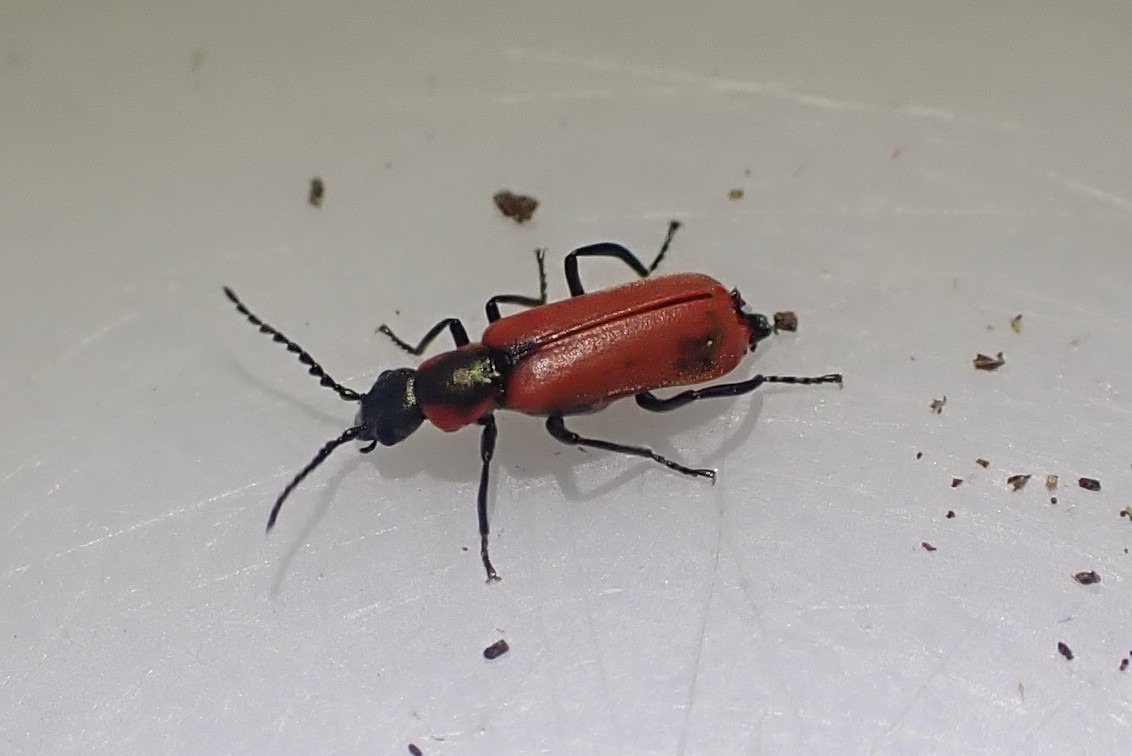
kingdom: Animalia
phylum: Arthropoda
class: Insecta
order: Coleoptera
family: Melyridae
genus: Anthocomus
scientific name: Anthocomus rufus
